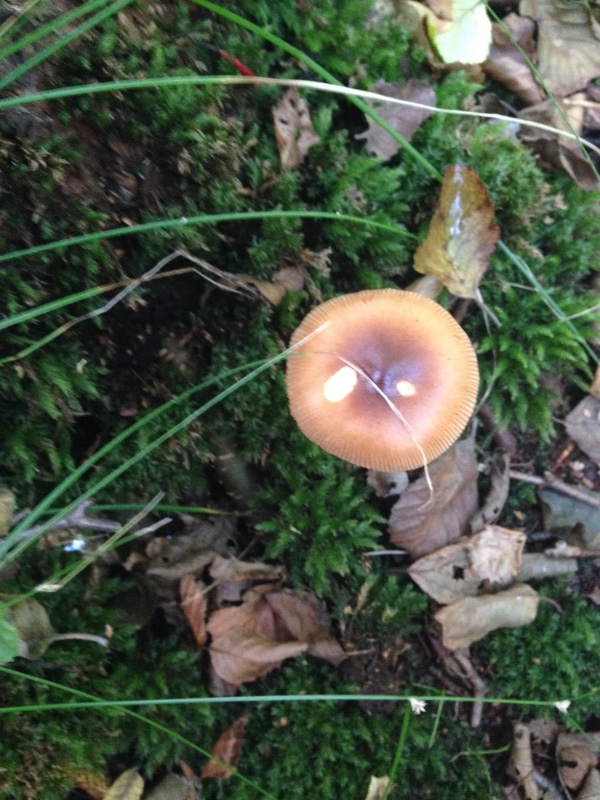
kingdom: Fungi
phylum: Basidiomycota
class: Agaricomycetes
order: Agaricales
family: Amanitaceae
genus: Amanita
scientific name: Amanita fulva
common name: brun kam-fluesvamp
